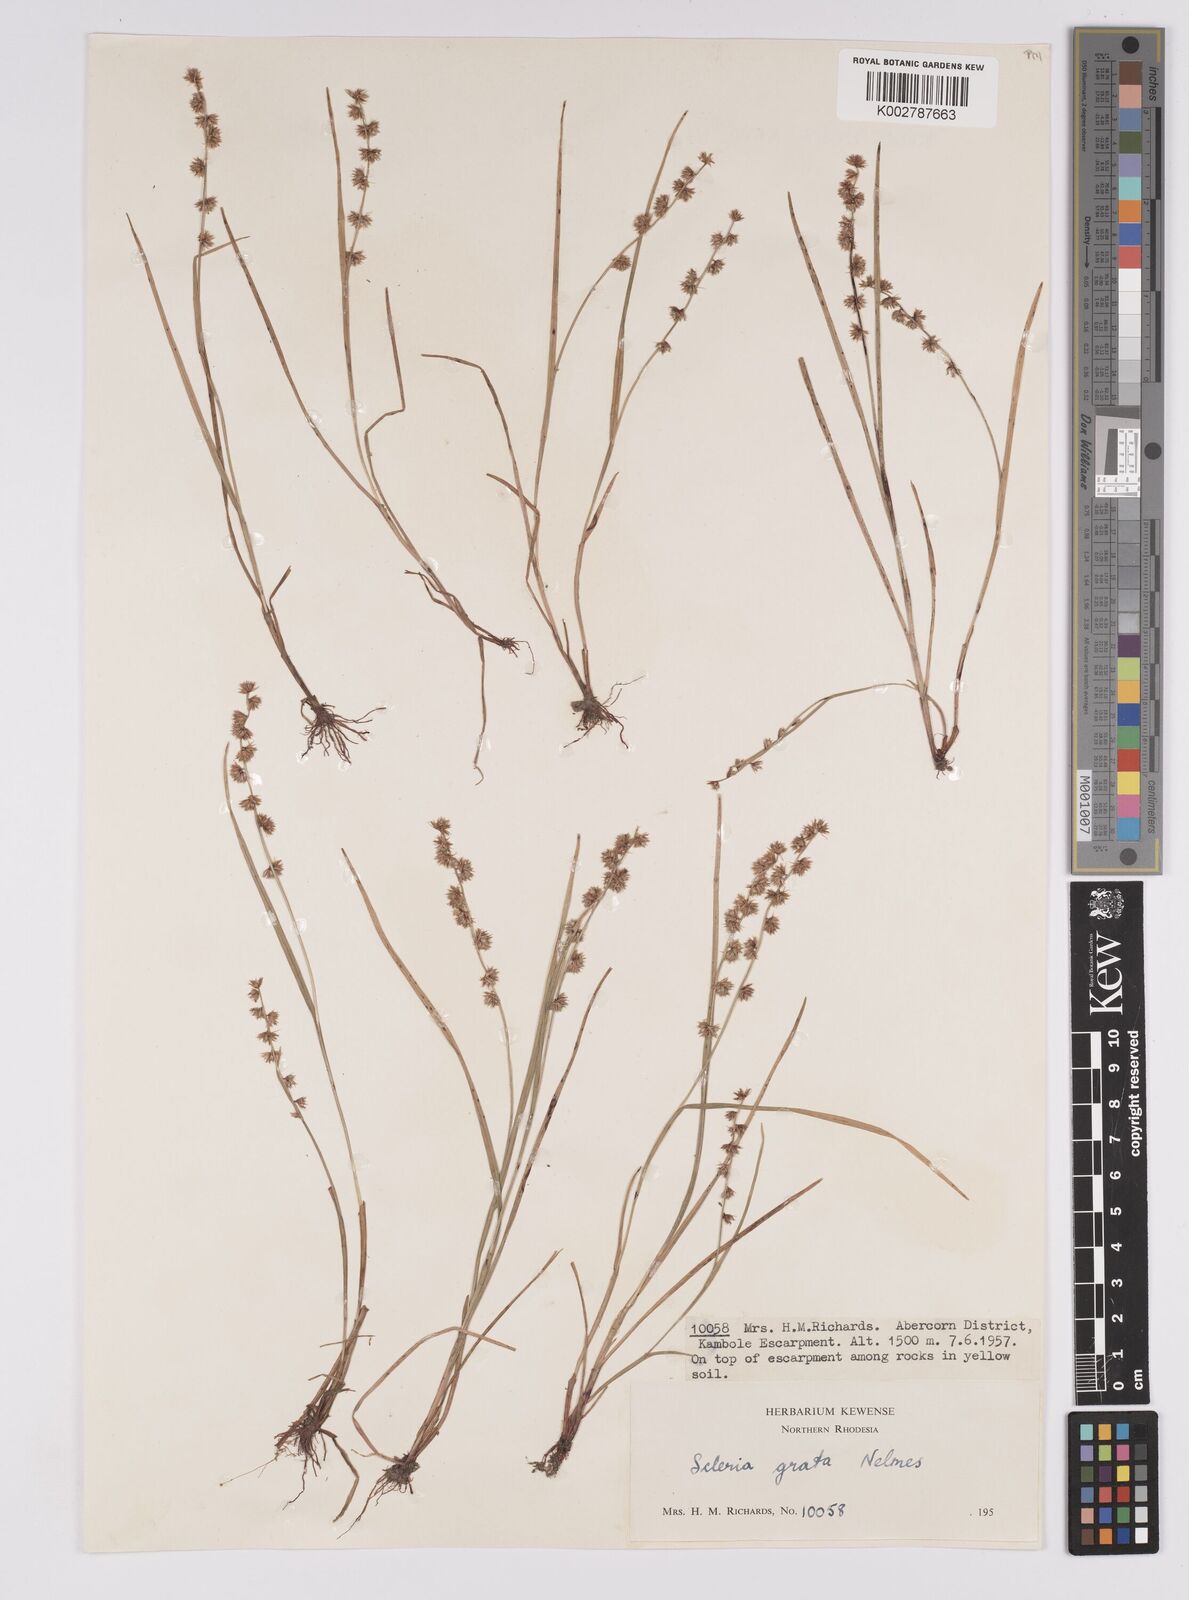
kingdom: Plantae
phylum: Tracheophyta
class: Liliopsida
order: Poales
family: Cyperaceae
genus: Scleria
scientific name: Scleria melanotricha
